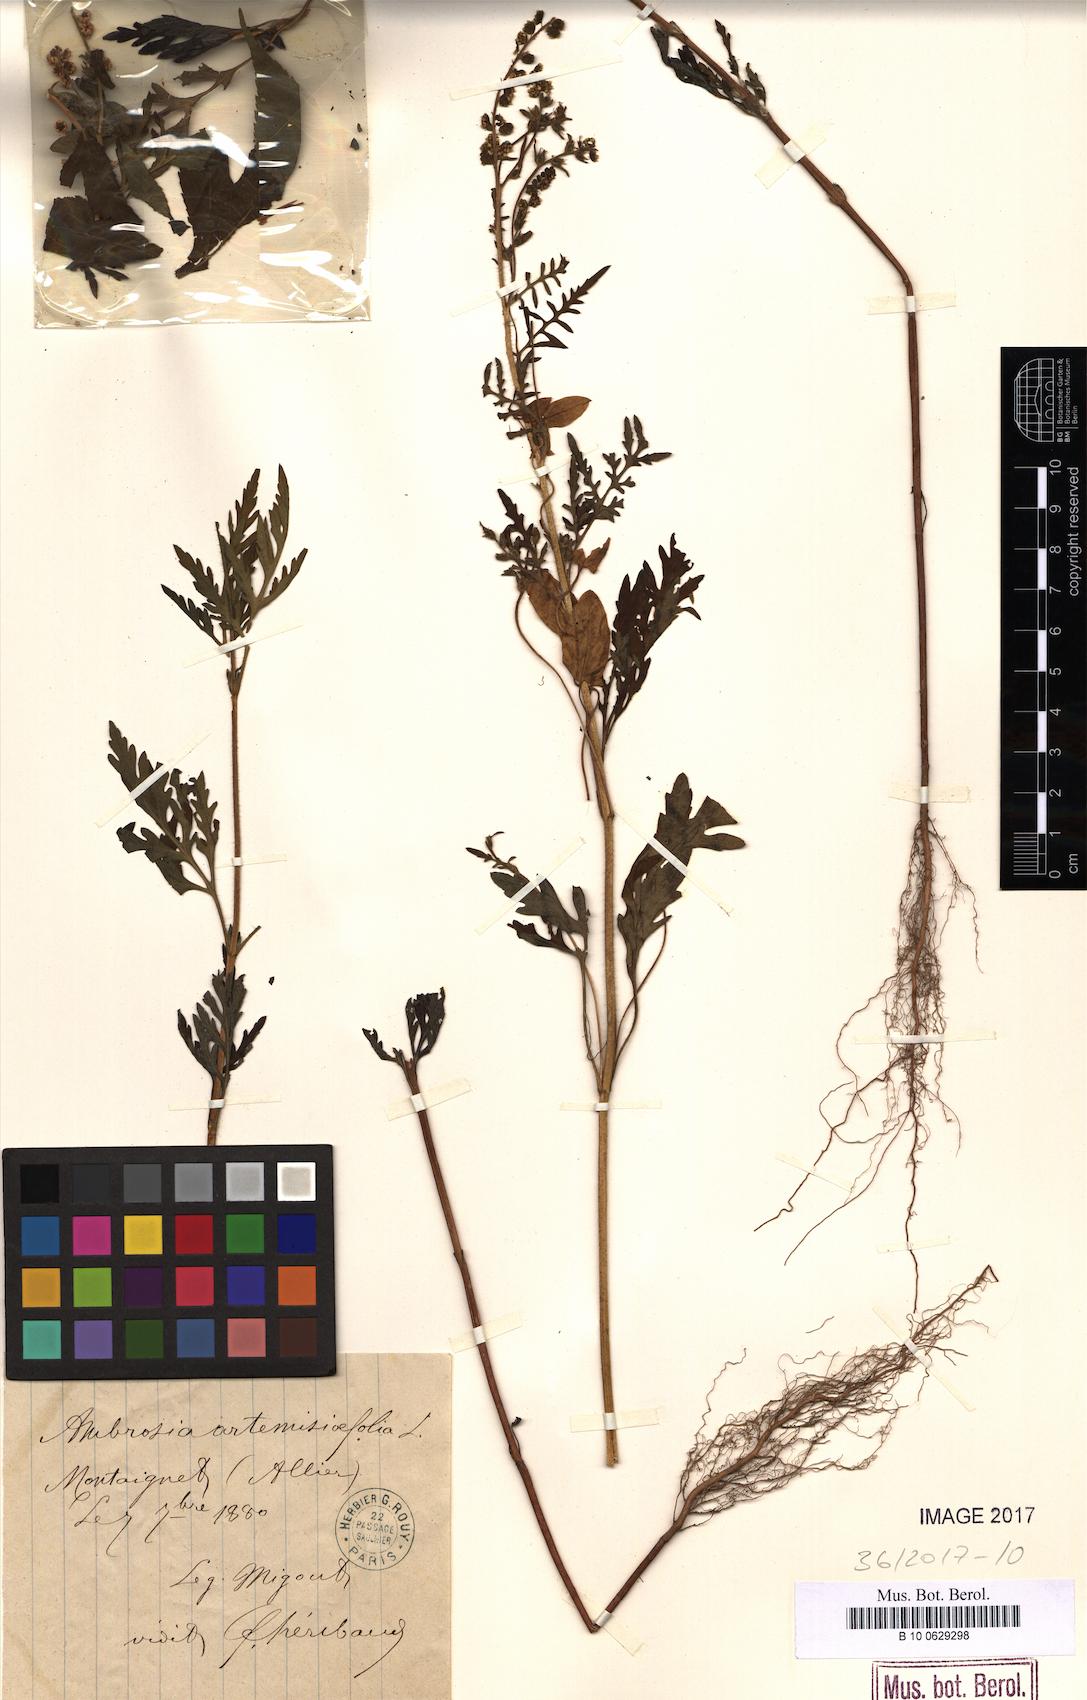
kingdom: Plantae
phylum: Tracheophyta
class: Magnoliopsida
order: Asterales
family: Asteraceae
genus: Ambrosia
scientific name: Ambrosia artemisiifolia
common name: Annual ragweed
